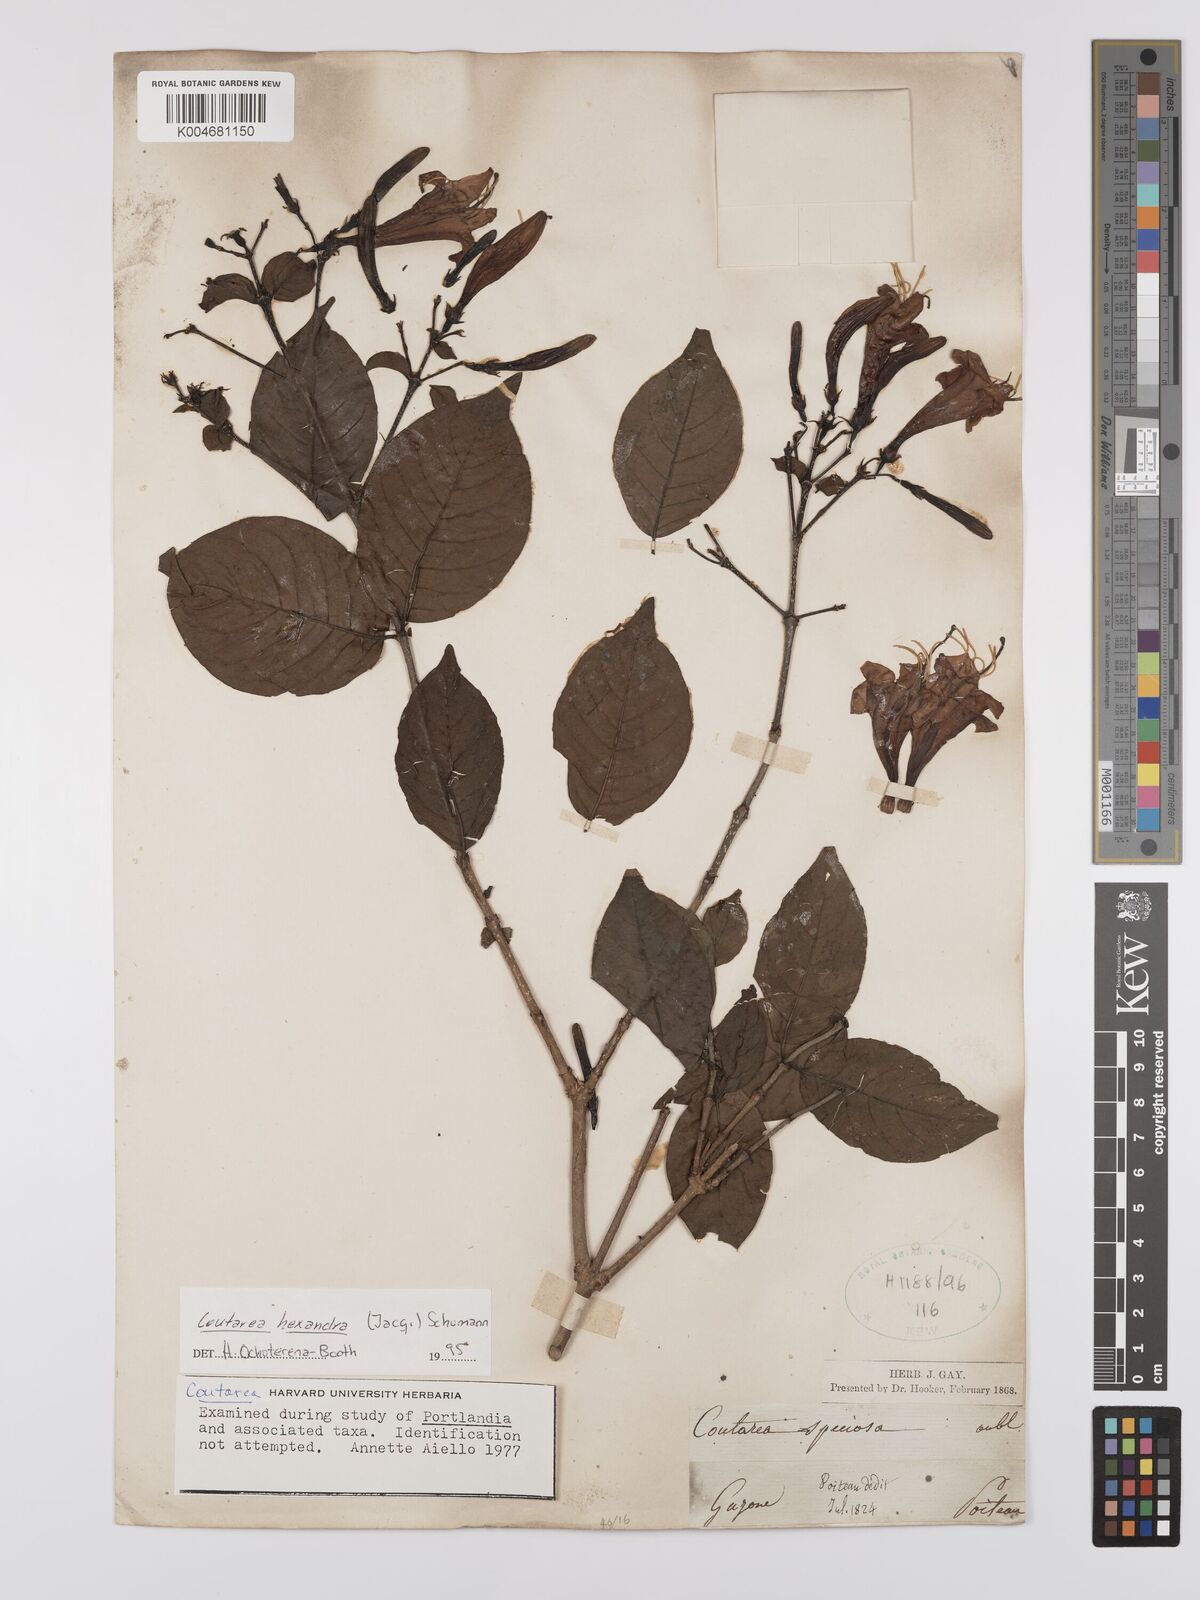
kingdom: Plantae
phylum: Tracheophyta
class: Magnoliopsida
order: Gentianales
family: Rubiaceae
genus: Coutarea
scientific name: Coutarea hexandra
